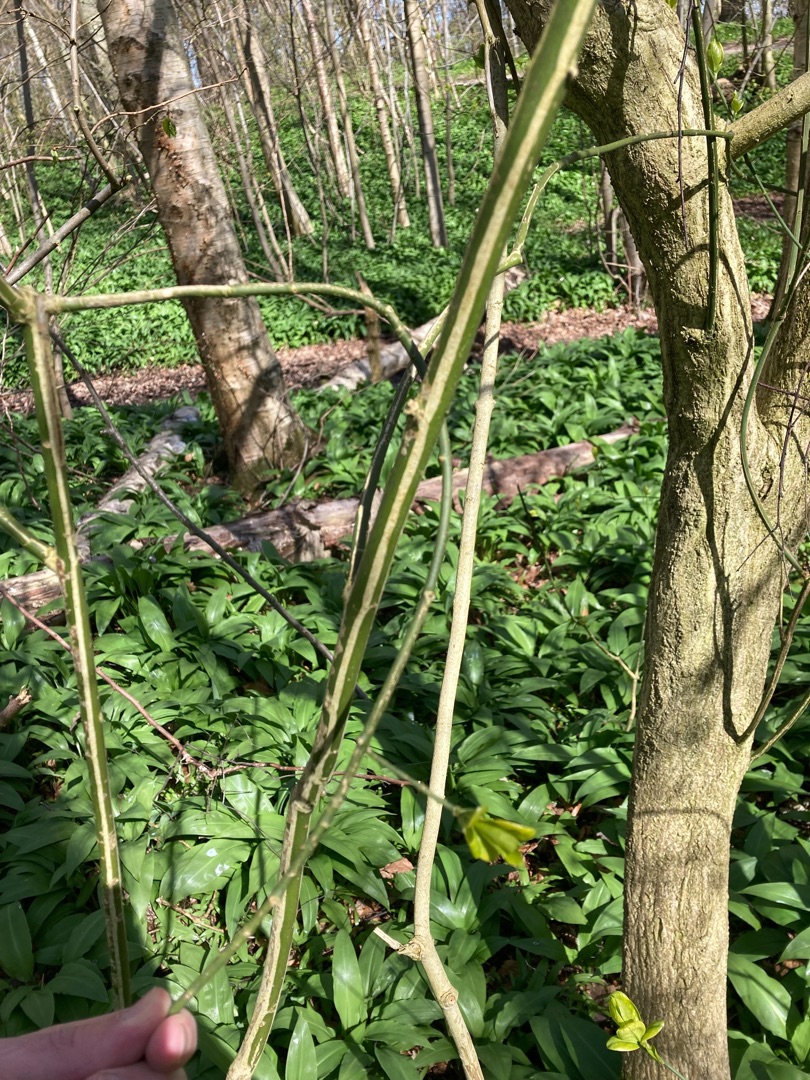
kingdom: Plantae
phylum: Tracheophyta
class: Magnoliopsida
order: Celastrales
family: Celastraceae
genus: Euonymus
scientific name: Euonymus europaeus
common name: Benved
